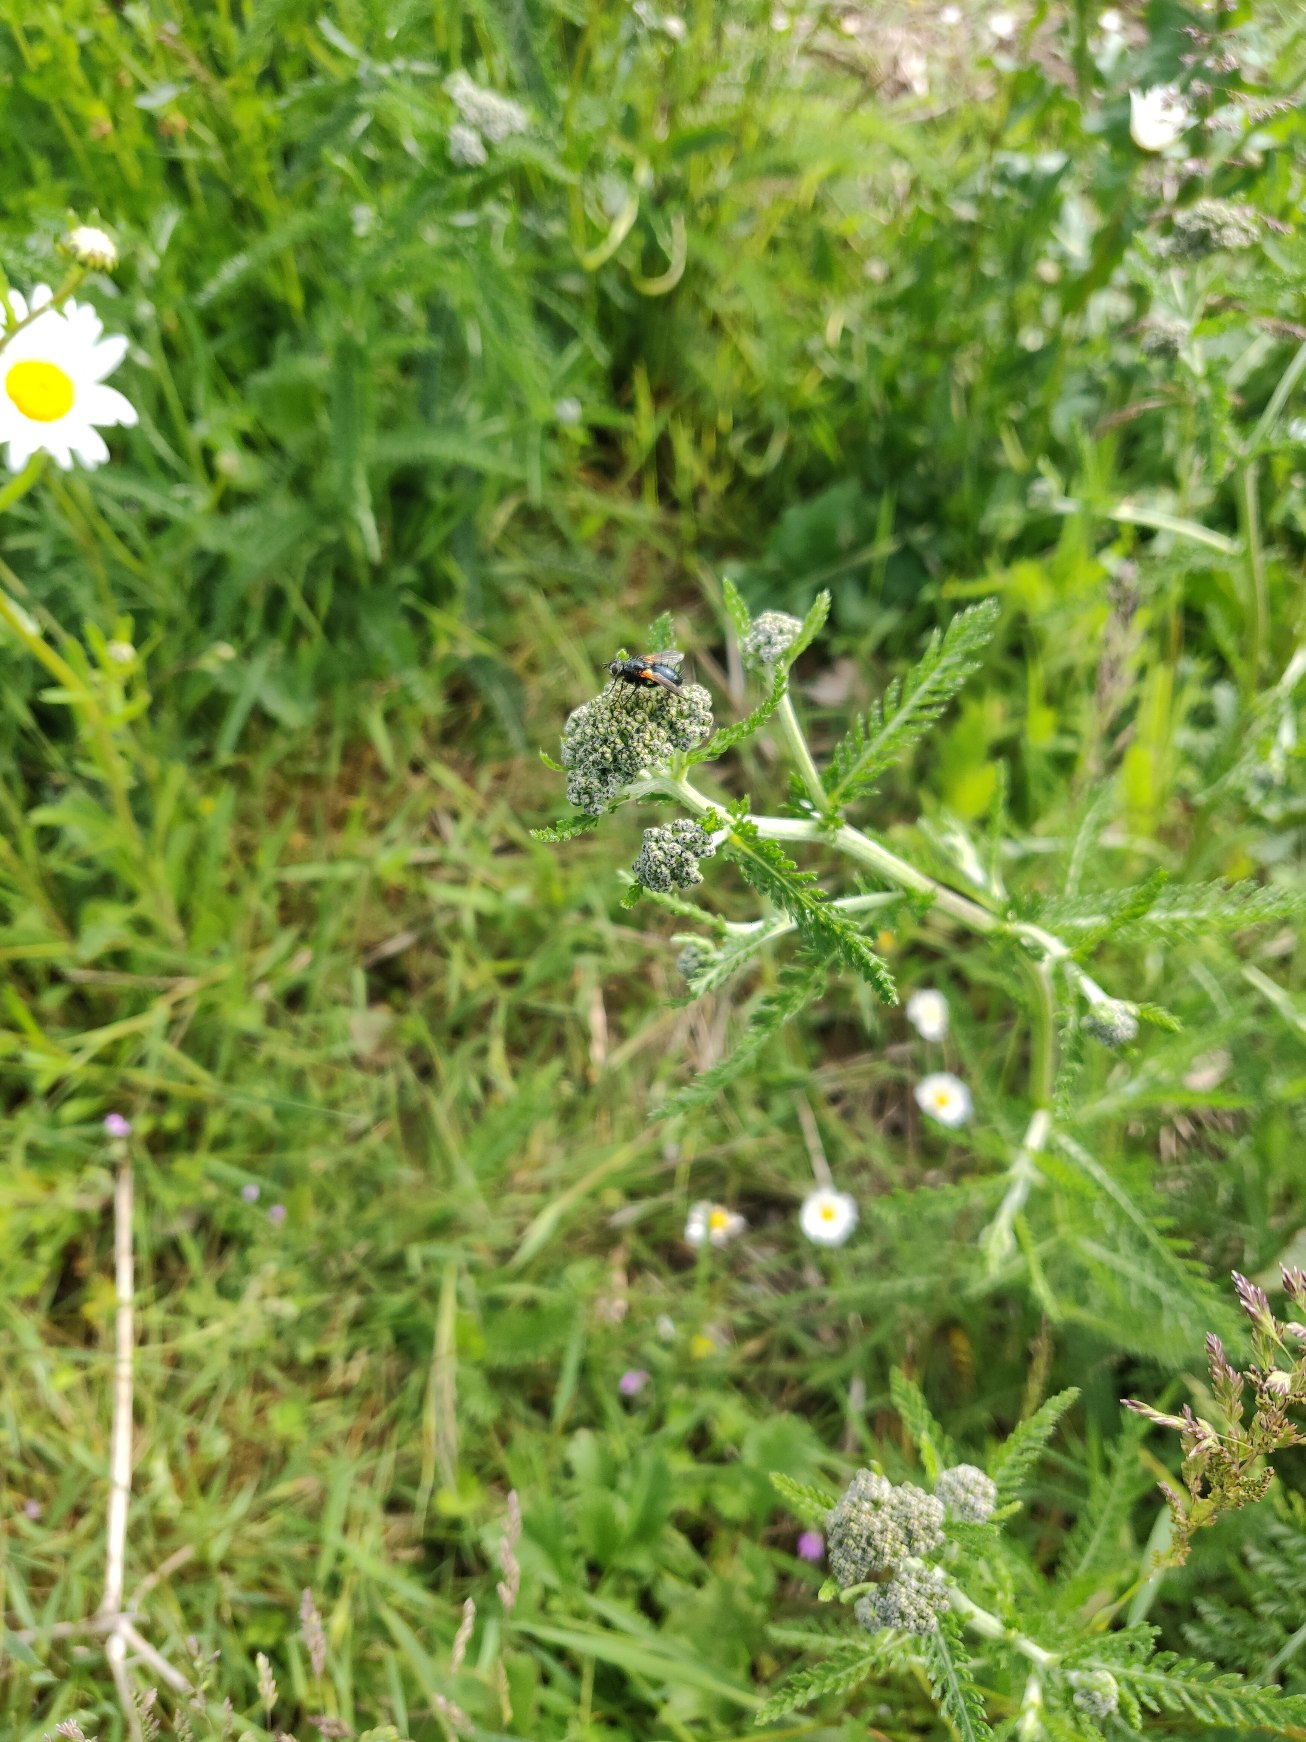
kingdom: Animalia
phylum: Arthropoda
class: Insecta
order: Diptera
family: Tachinidae
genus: Zophomyia
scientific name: Zophomyia temula
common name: Gulvinget snylteflue
